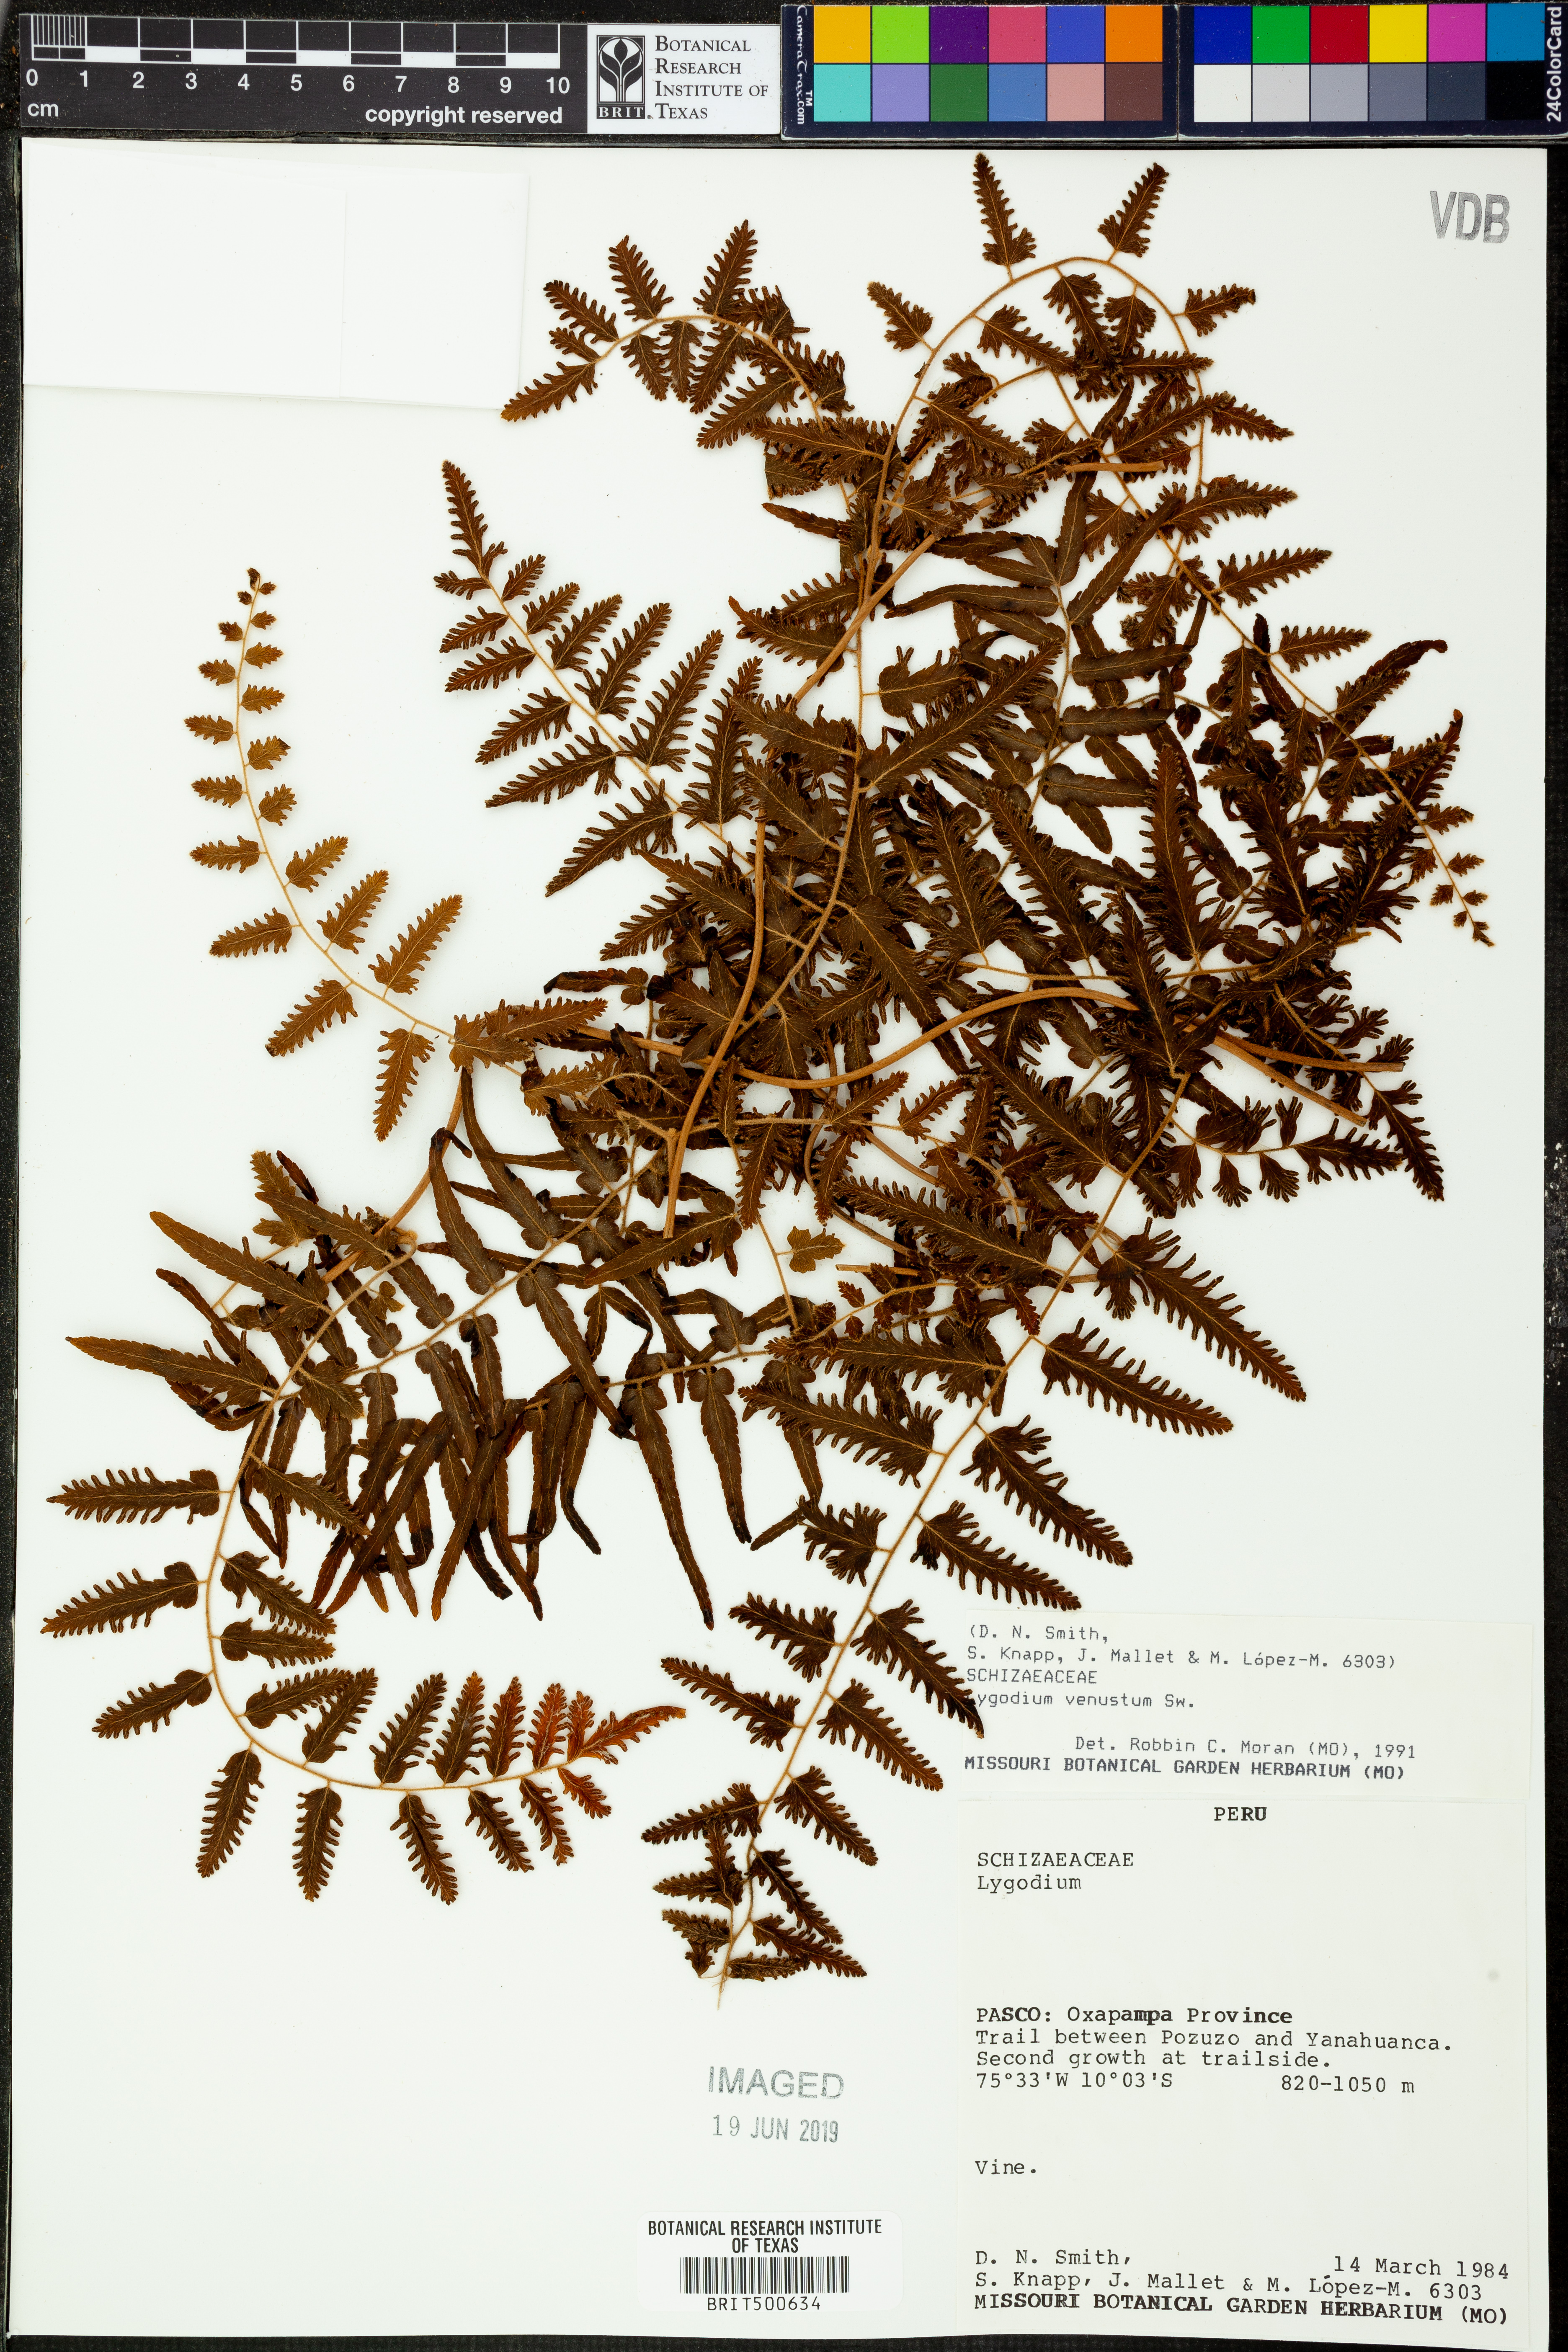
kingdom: Plantae
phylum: Tracheophyta
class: Polypodiopsida
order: Schizaeales
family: Lygodiaceae
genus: Lygodium
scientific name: Lygodium venustum
